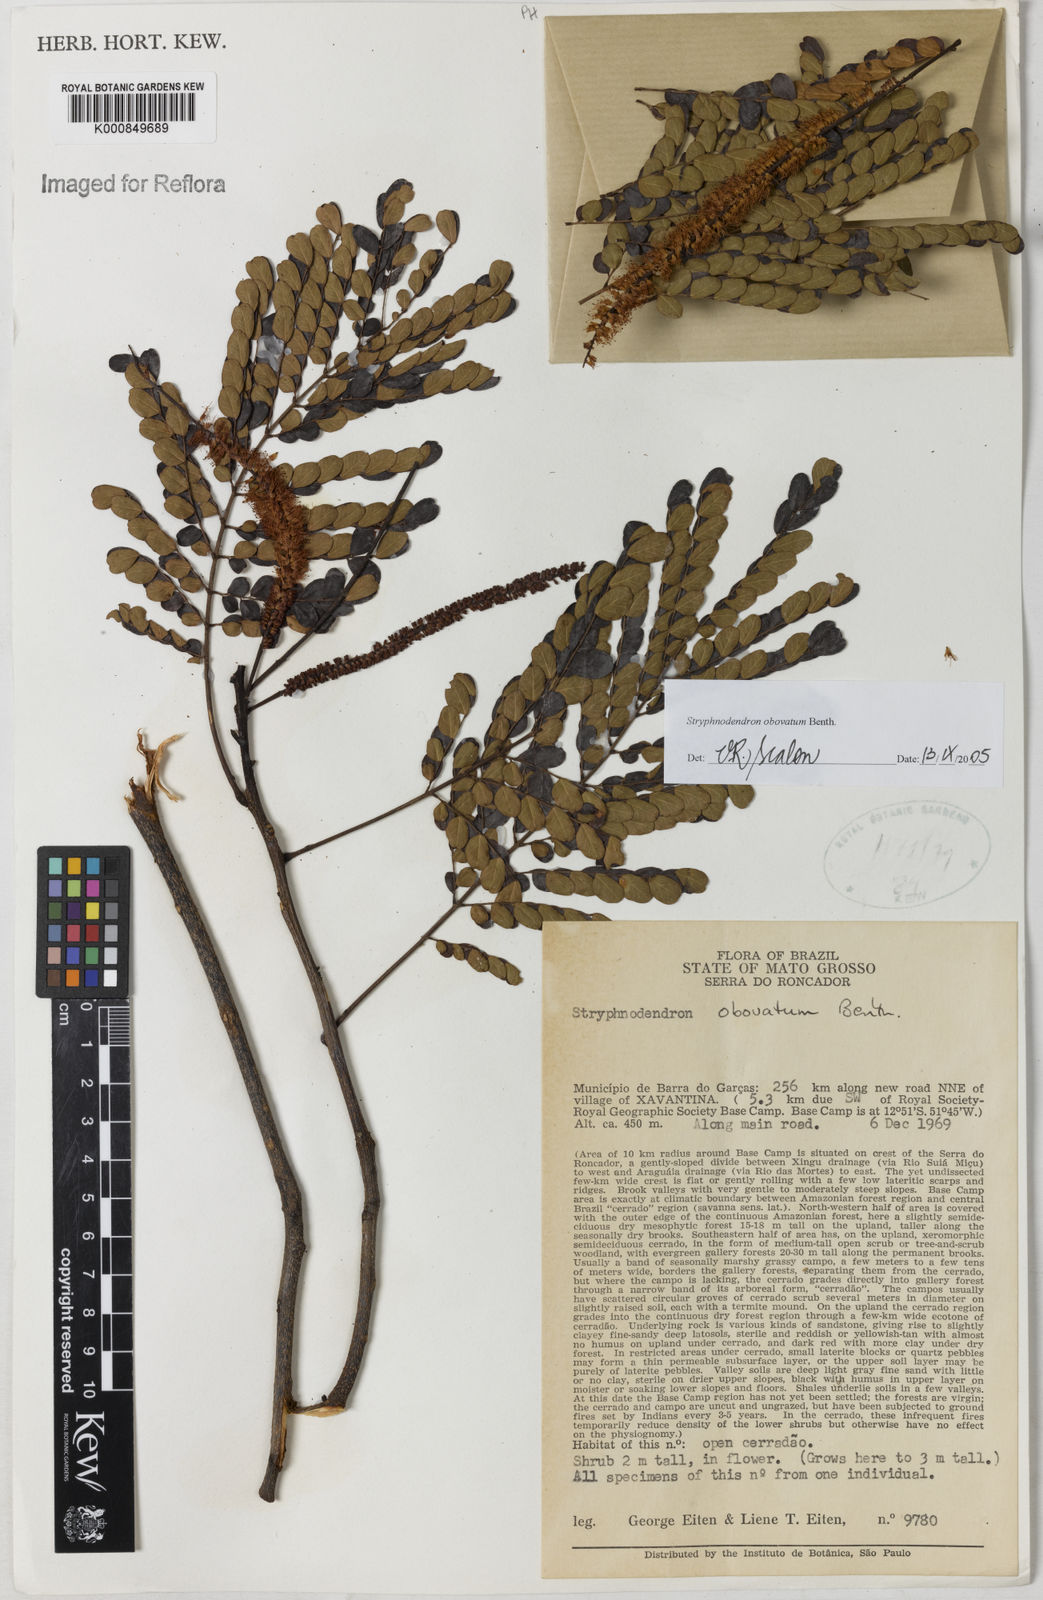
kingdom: Plantae
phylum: Tracheophyta
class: Magnoliopsida
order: Fabales
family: Fabaceae
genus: Stryphnodendron
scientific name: Stryphnodendron rotundifolium
